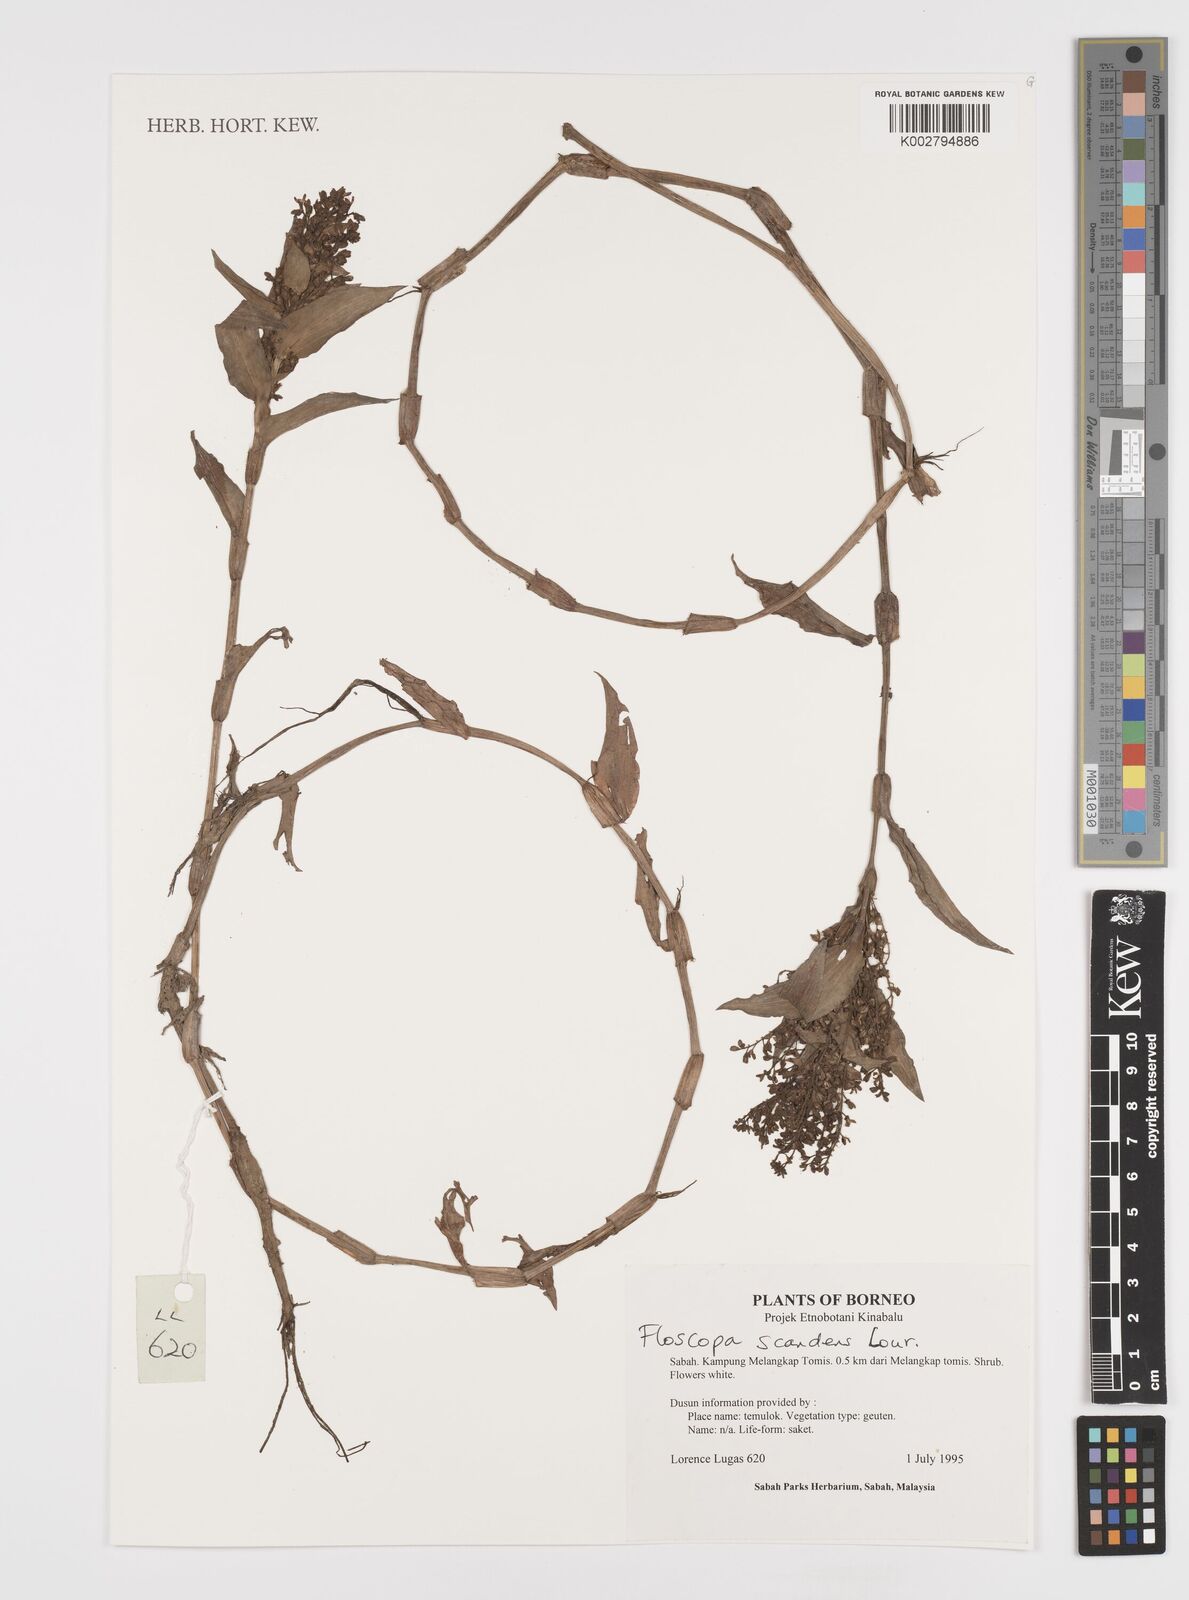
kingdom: Plantae
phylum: Tracheophyta
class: Liliopsida
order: Commelinales
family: Commelinaceae
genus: Floscopa
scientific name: Floscopa scandens
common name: Climbing flower cup
